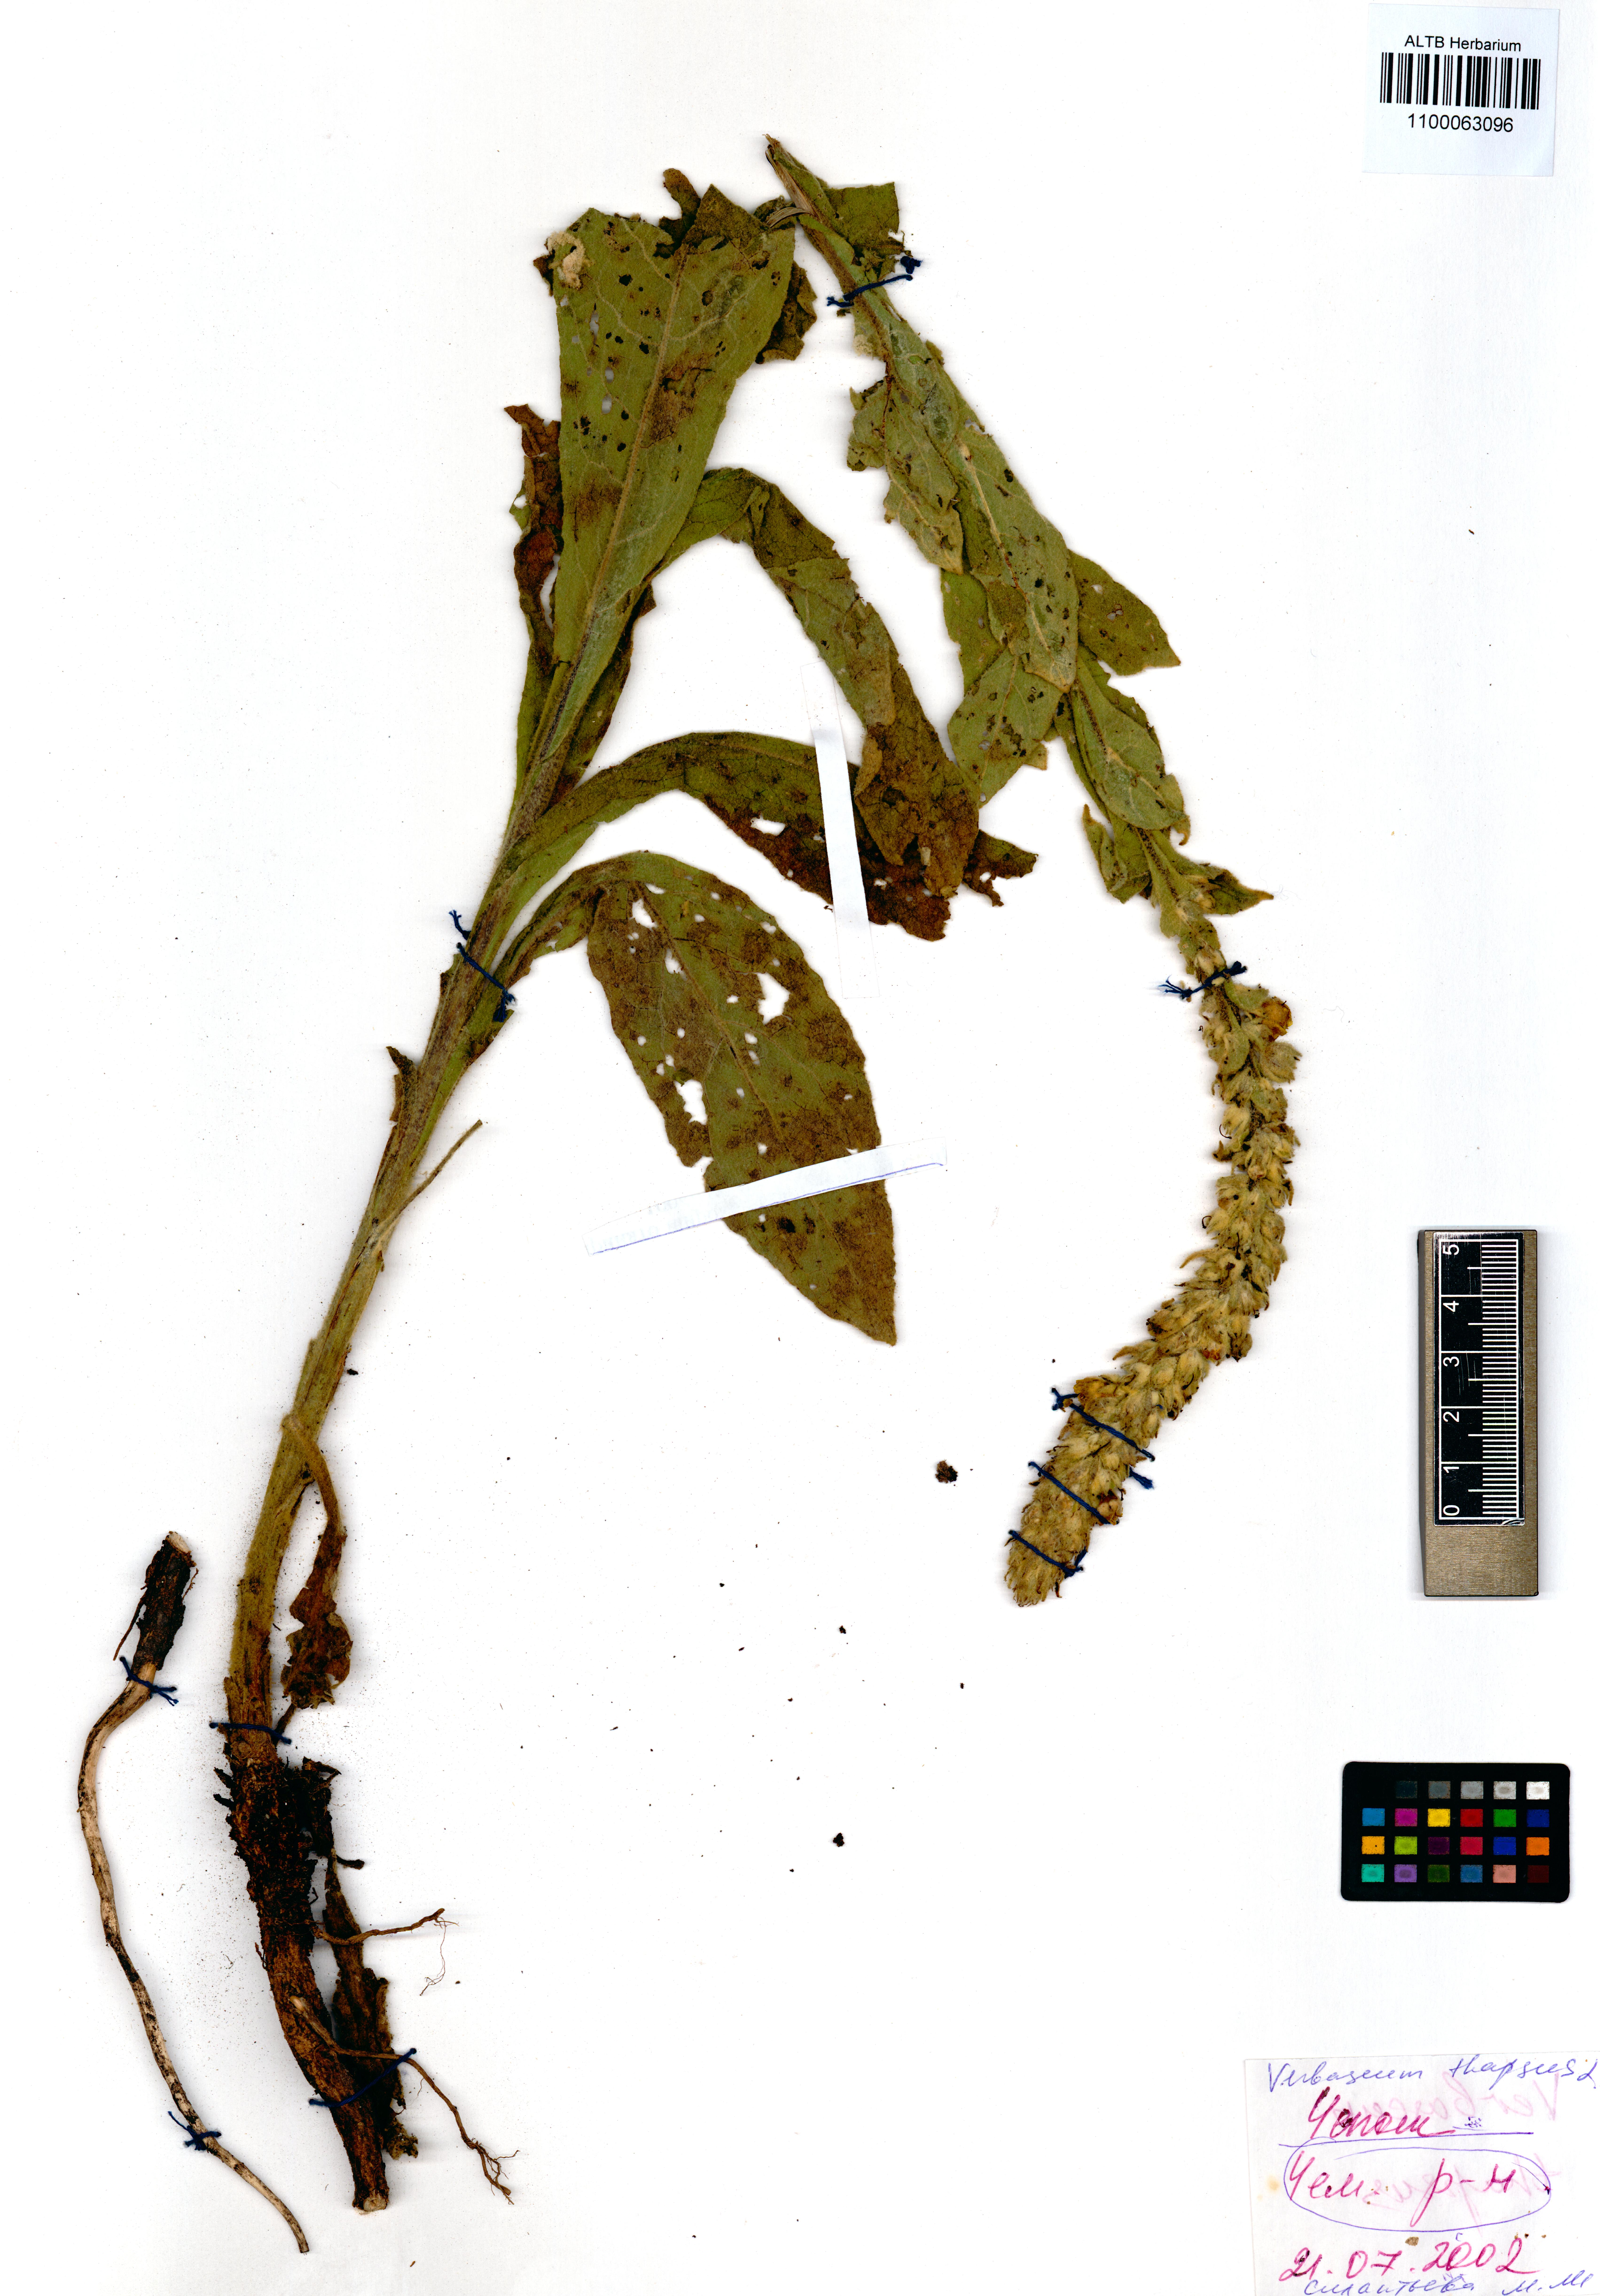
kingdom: Plantae
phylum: Tracheophyta
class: Magnoliopsida
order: Lamiales
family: Scrophulariaceae
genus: Verbascum
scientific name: Verbascum thapsus
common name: Common mullein
